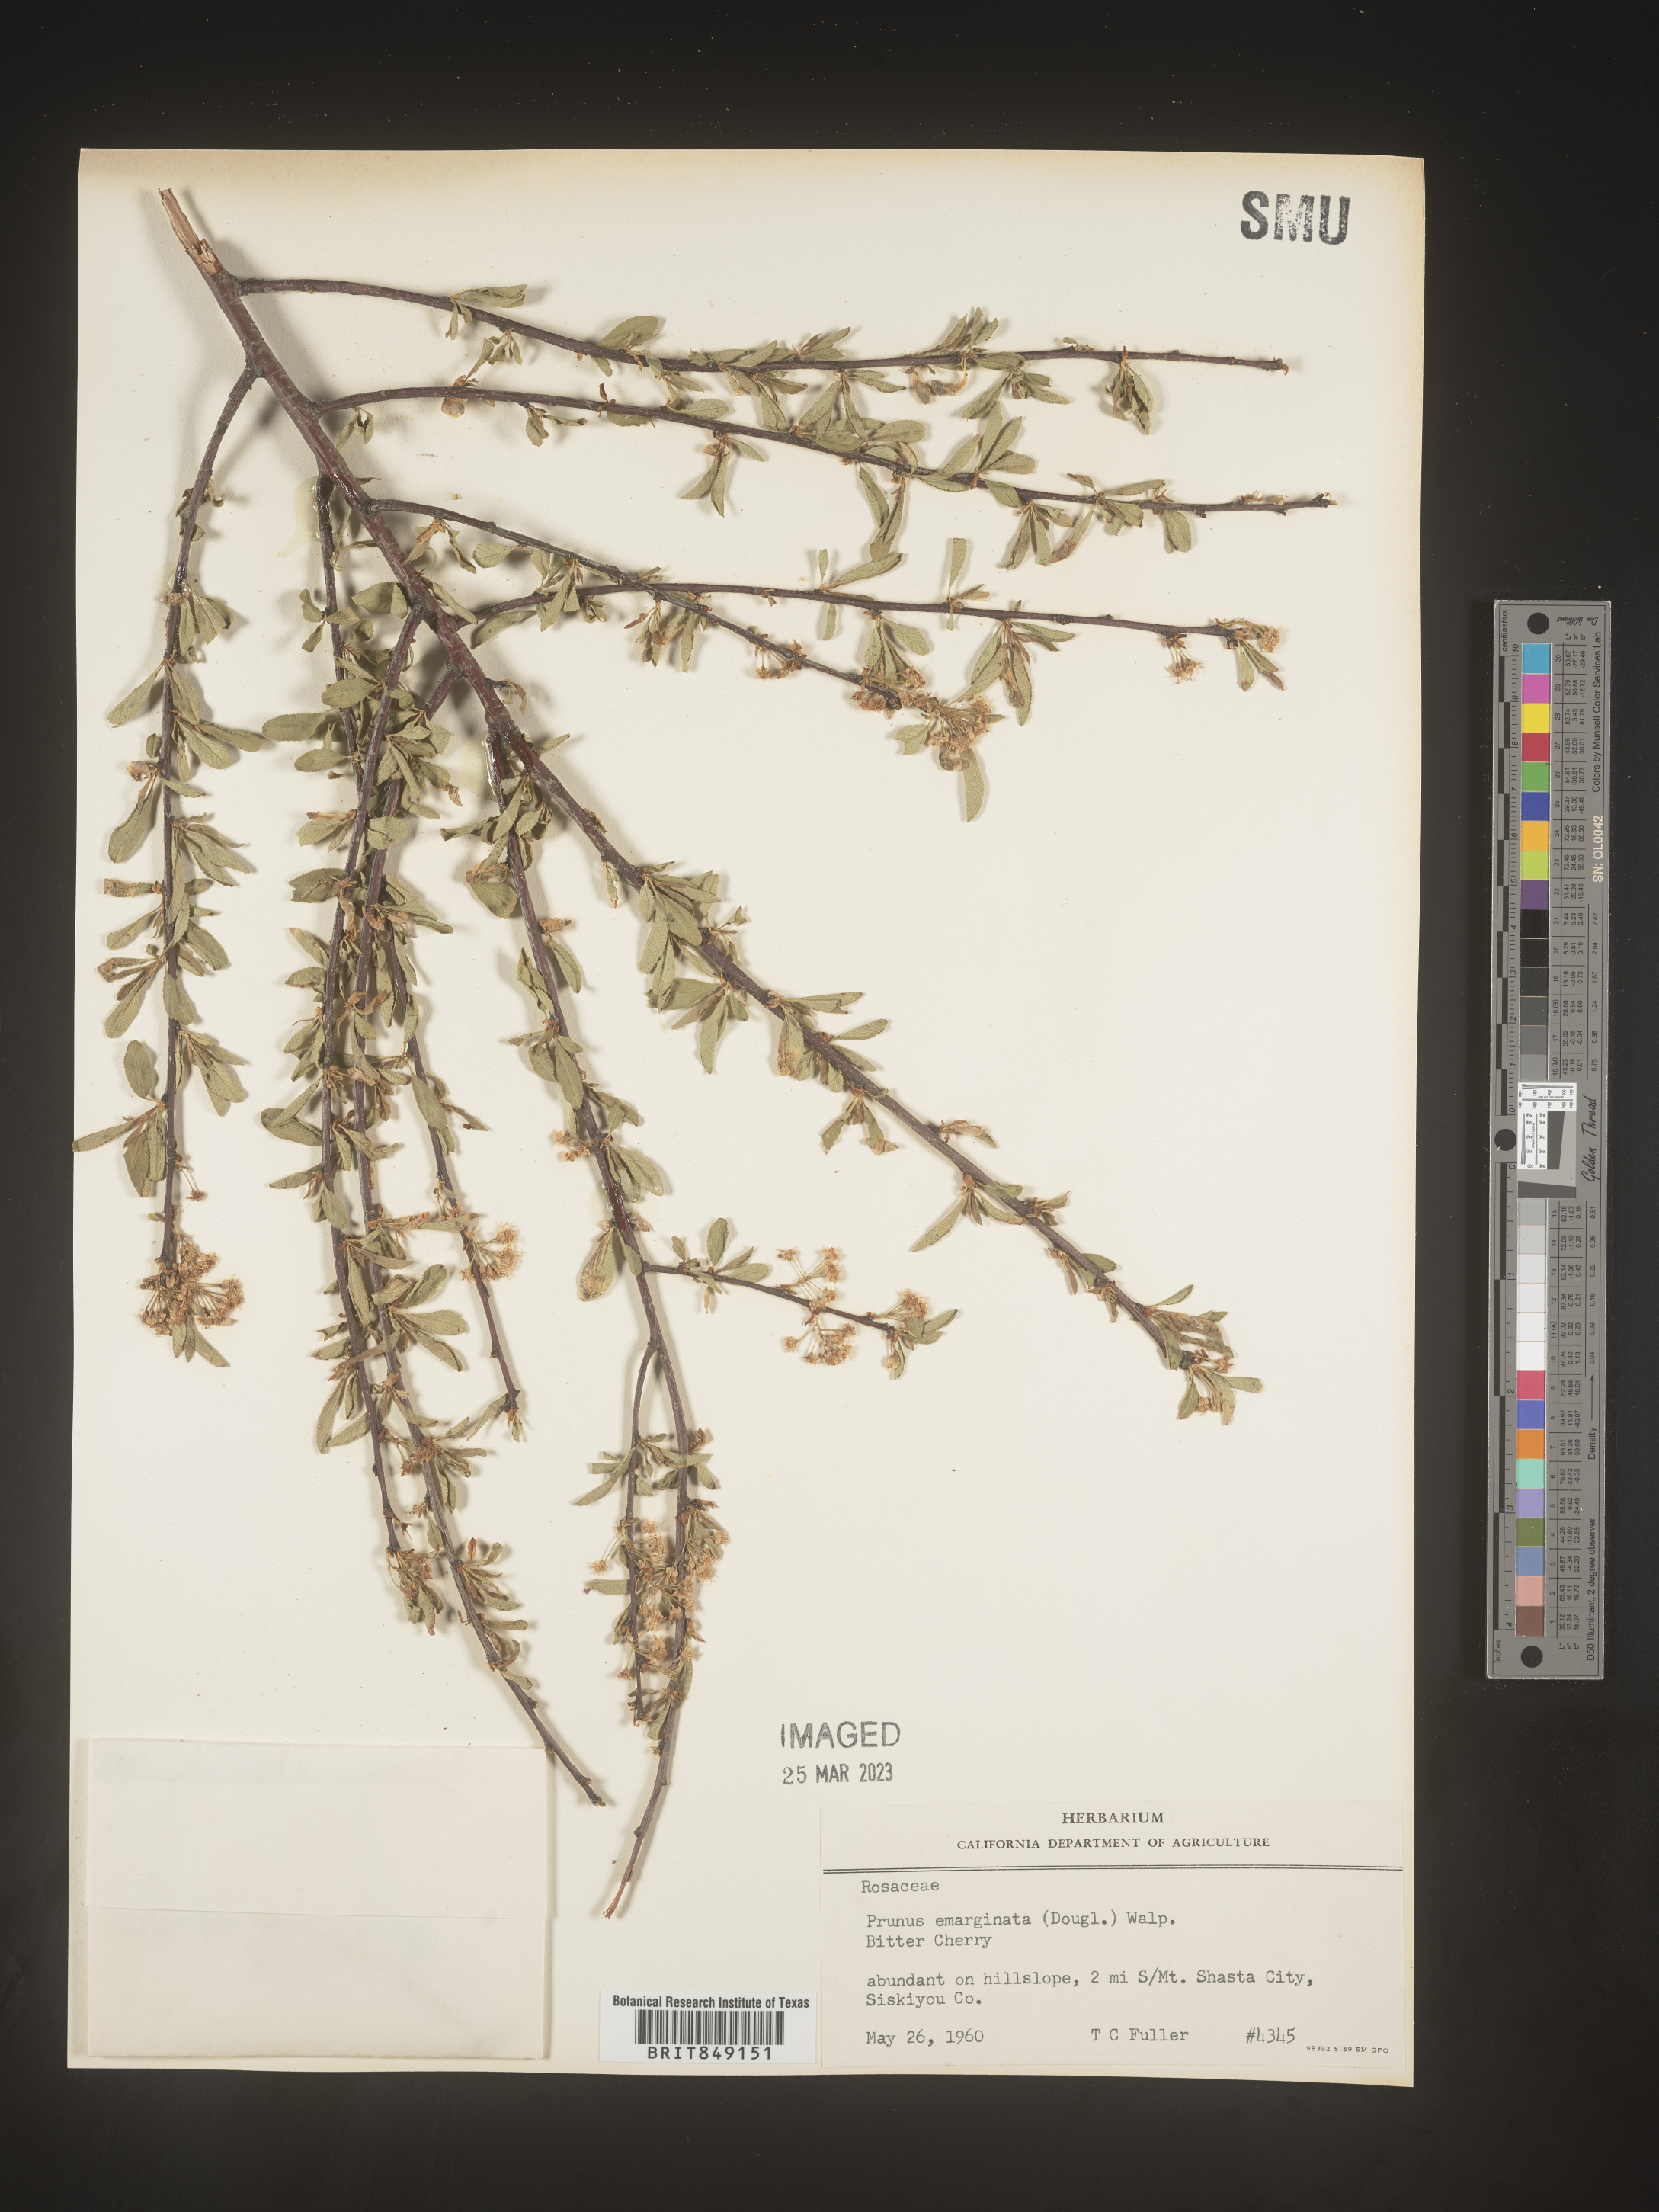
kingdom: Plantae
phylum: Tracheophyta
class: Magnoliopsida
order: Rosales
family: Rosaceae
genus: Prunus
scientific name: Prunus emarginata
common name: Bitter cherry
